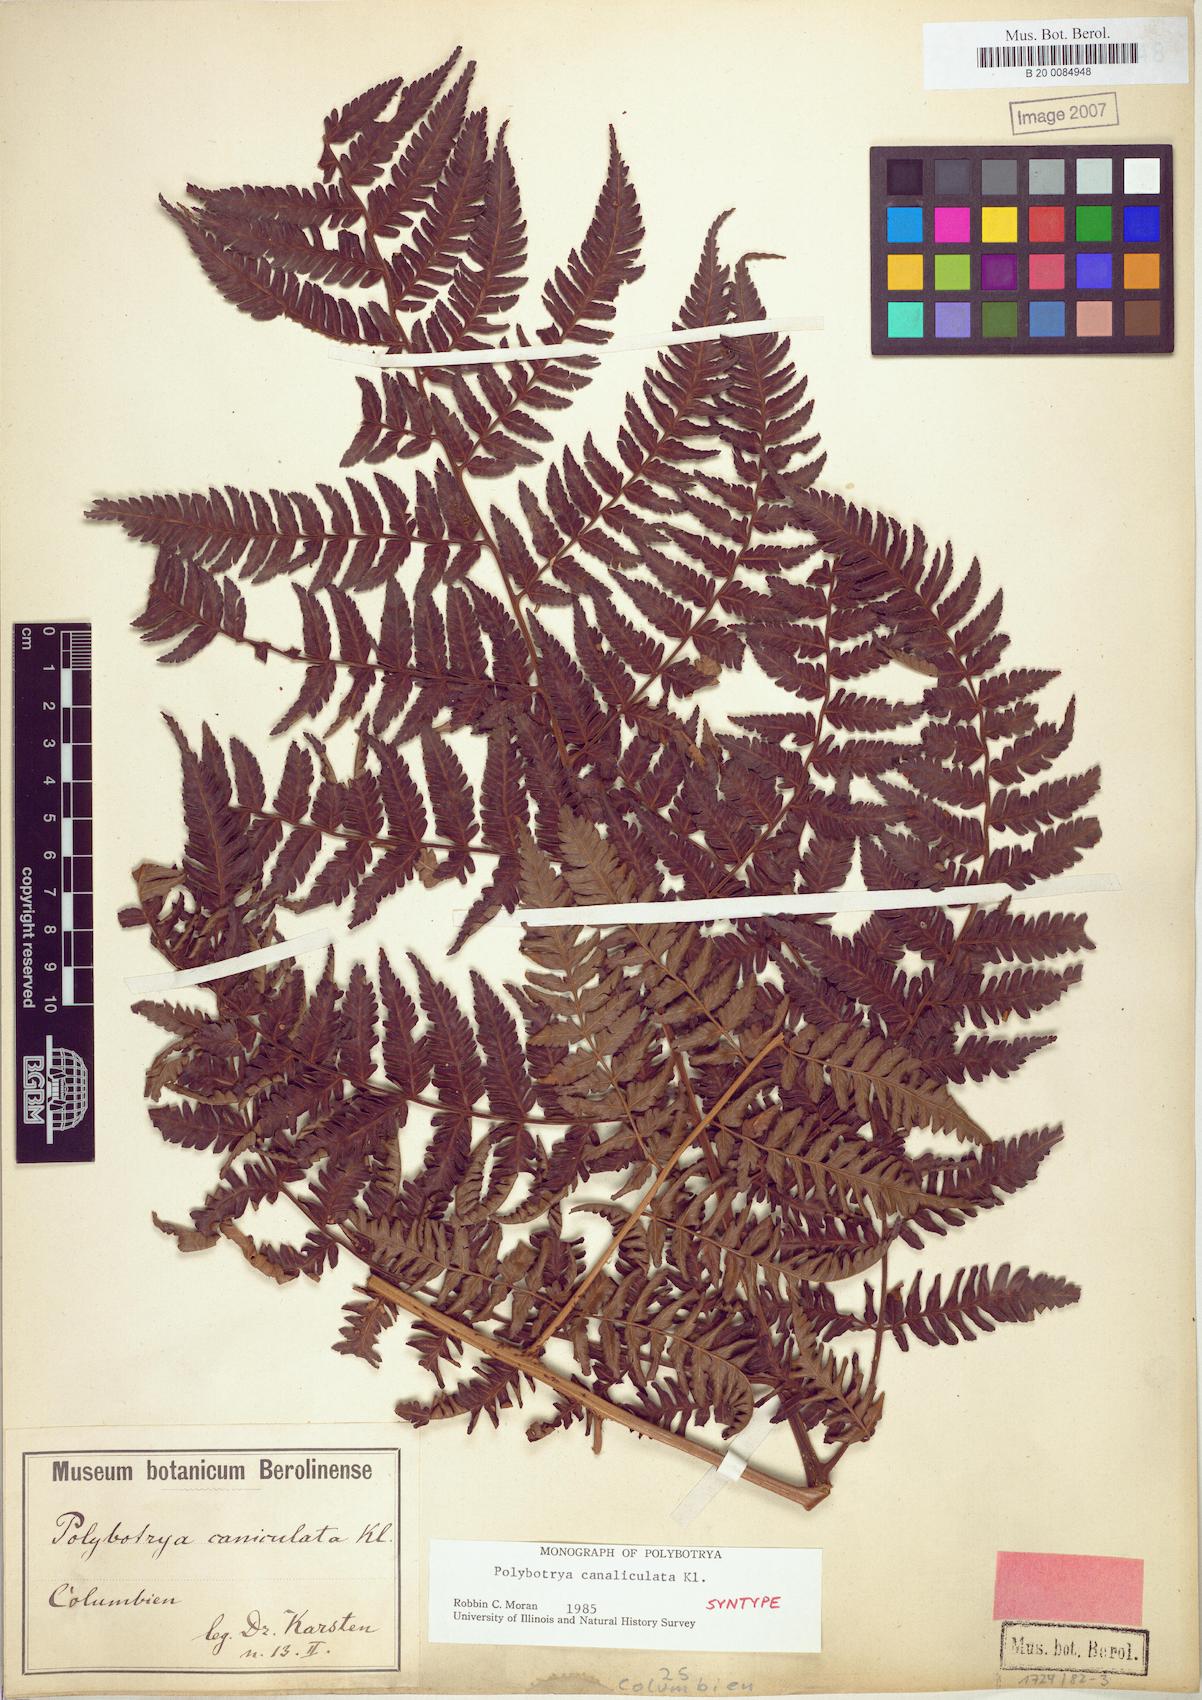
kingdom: Plantae
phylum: Tracheophyta
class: Polypodiopsida
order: Polypodiales
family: Dryopteridaceae
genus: Polybotrya
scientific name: Polybotrya canaliculata
